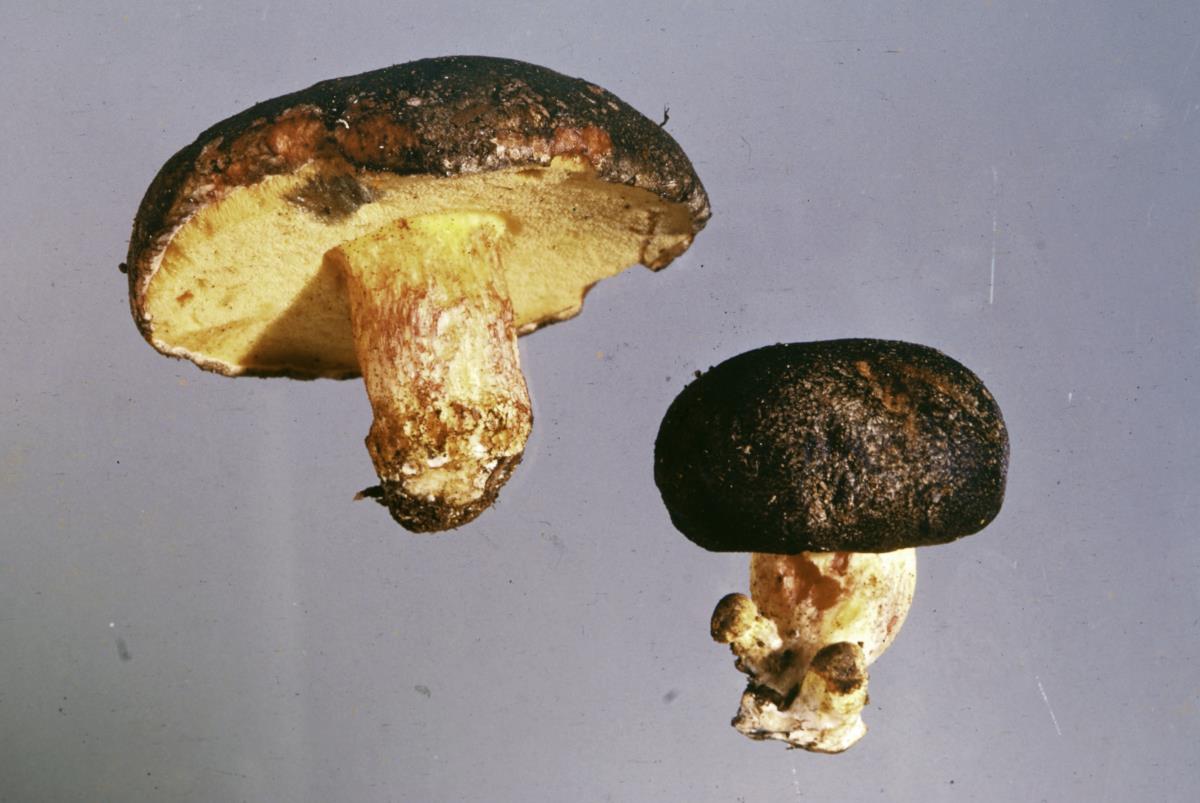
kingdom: Fungi
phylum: Basidiomycota
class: Agaricomycetes
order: Boletales
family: Boletaceae
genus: Xerocomus
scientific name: Xerocomus leptospermi
